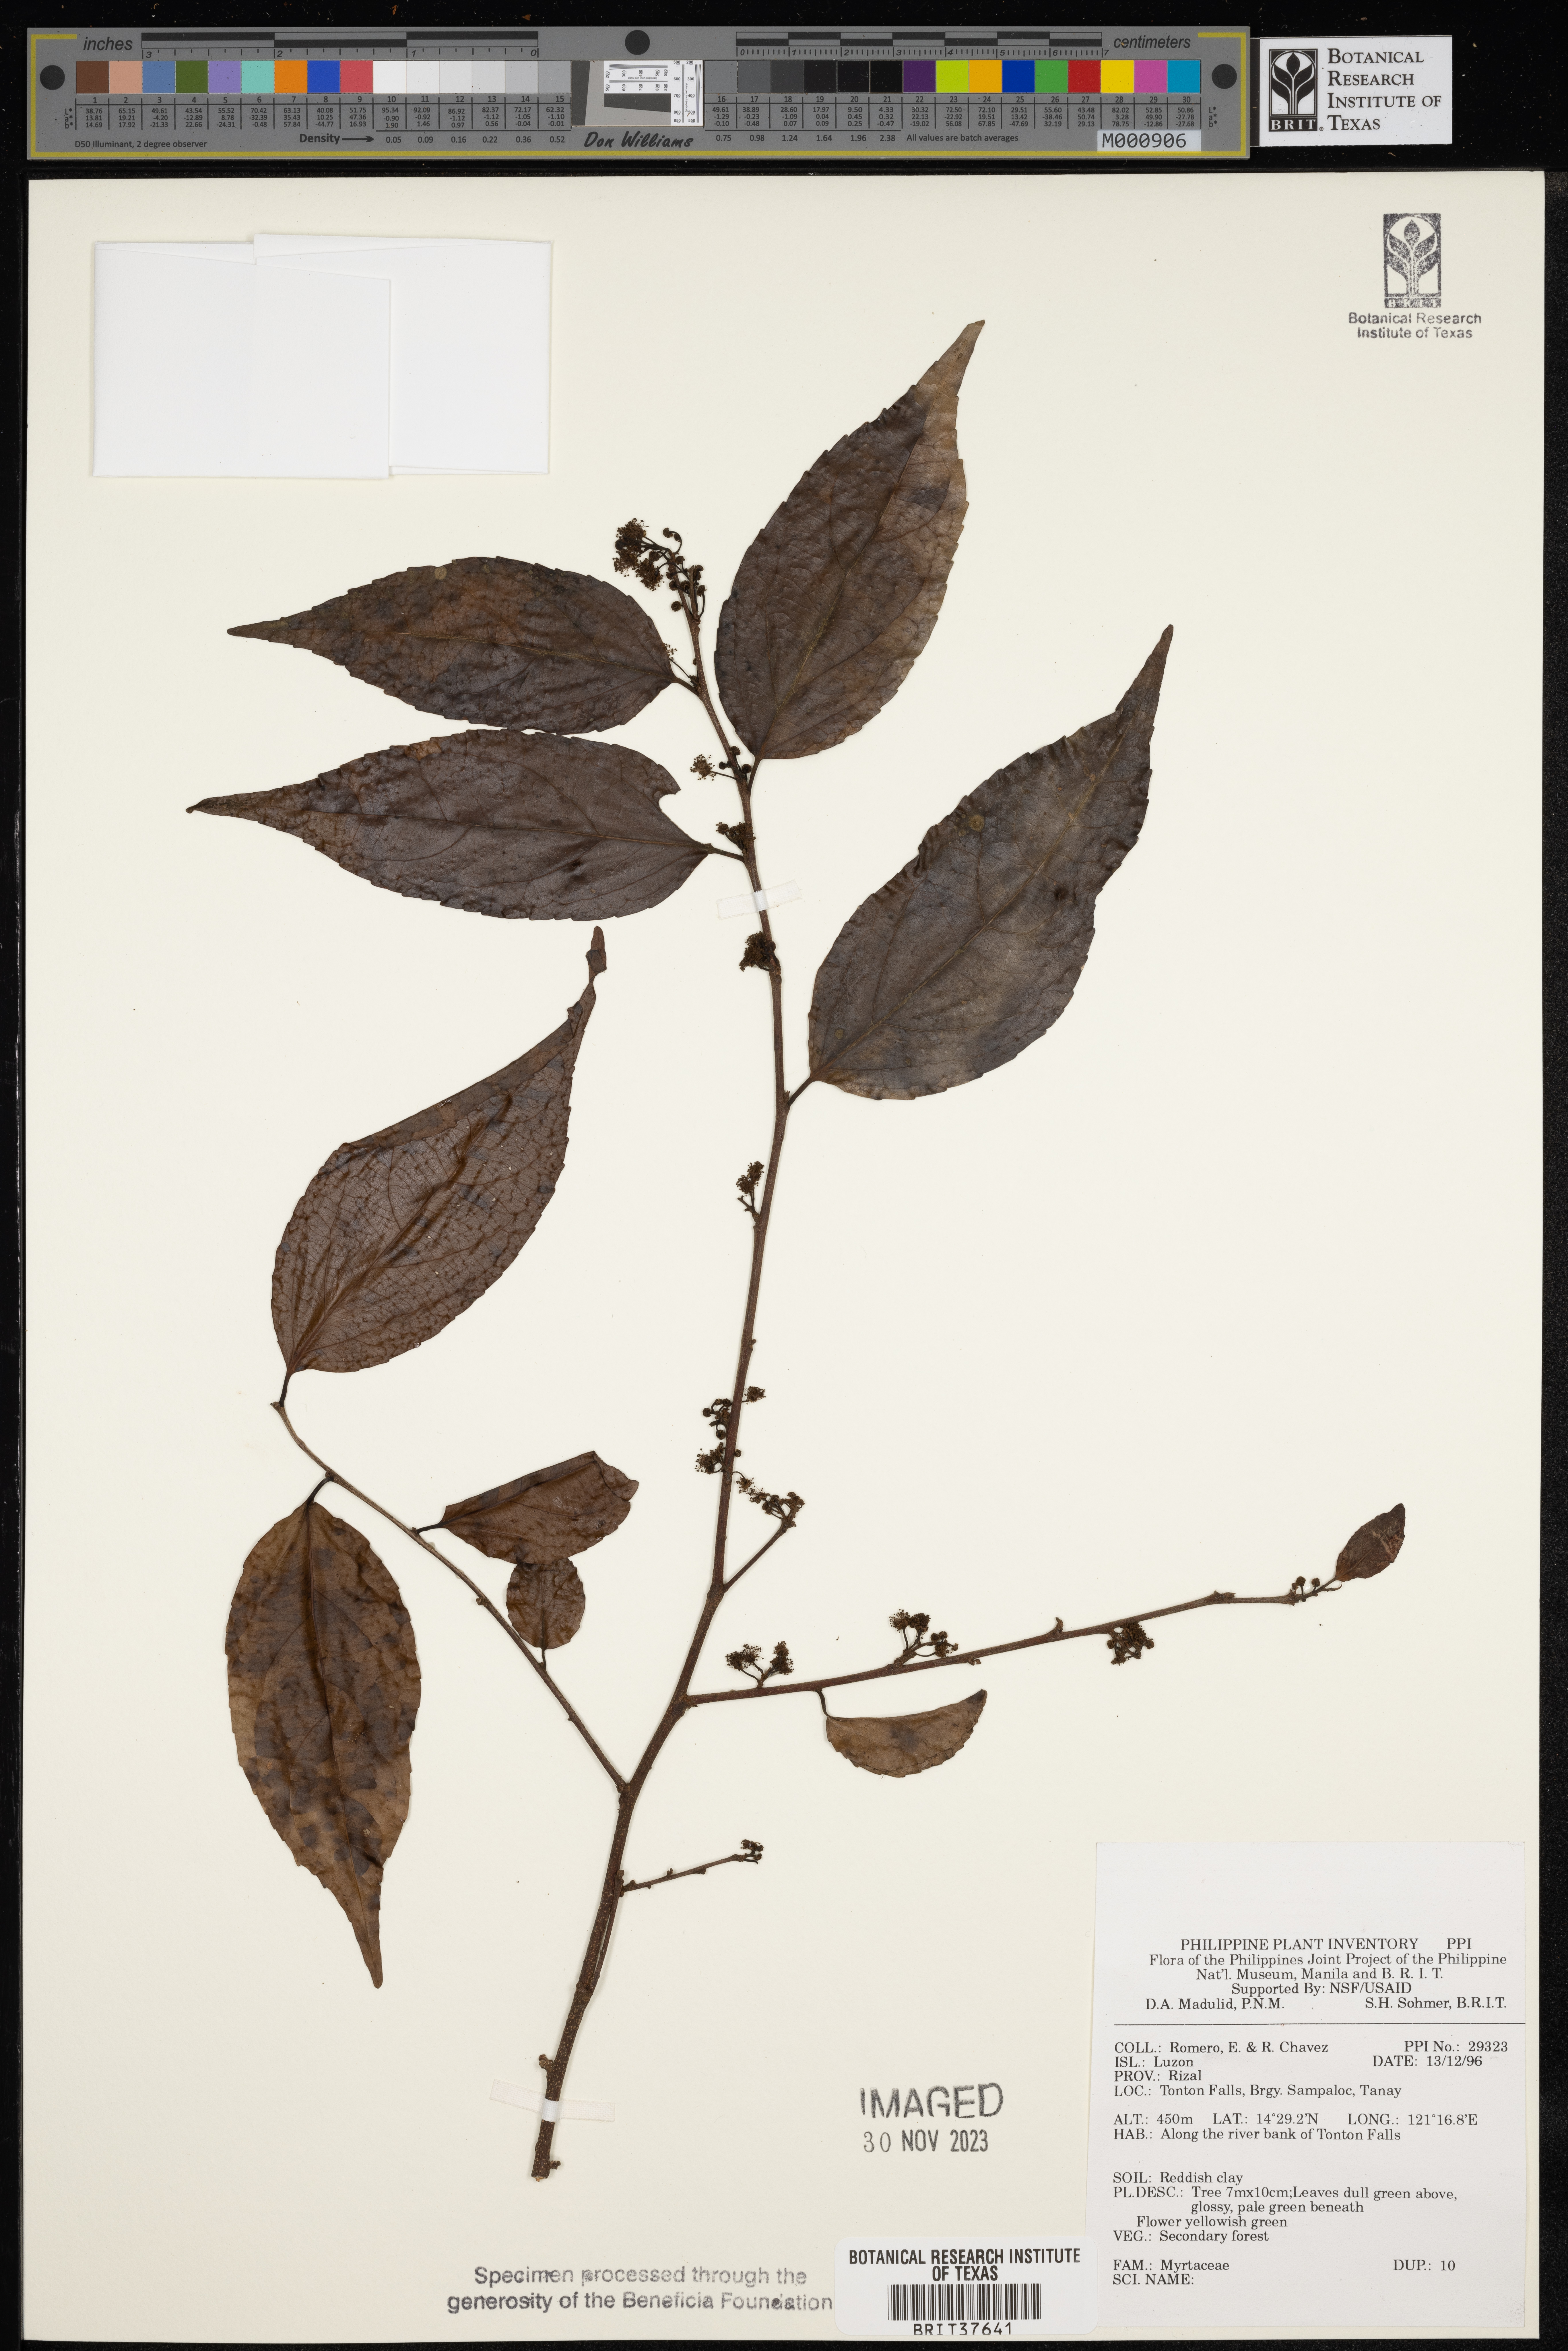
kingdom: Plantae
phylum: Tracheophyta
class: Magnoliopsida
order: Myrtales
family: Myrtaceae
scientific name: Myrtaceae
